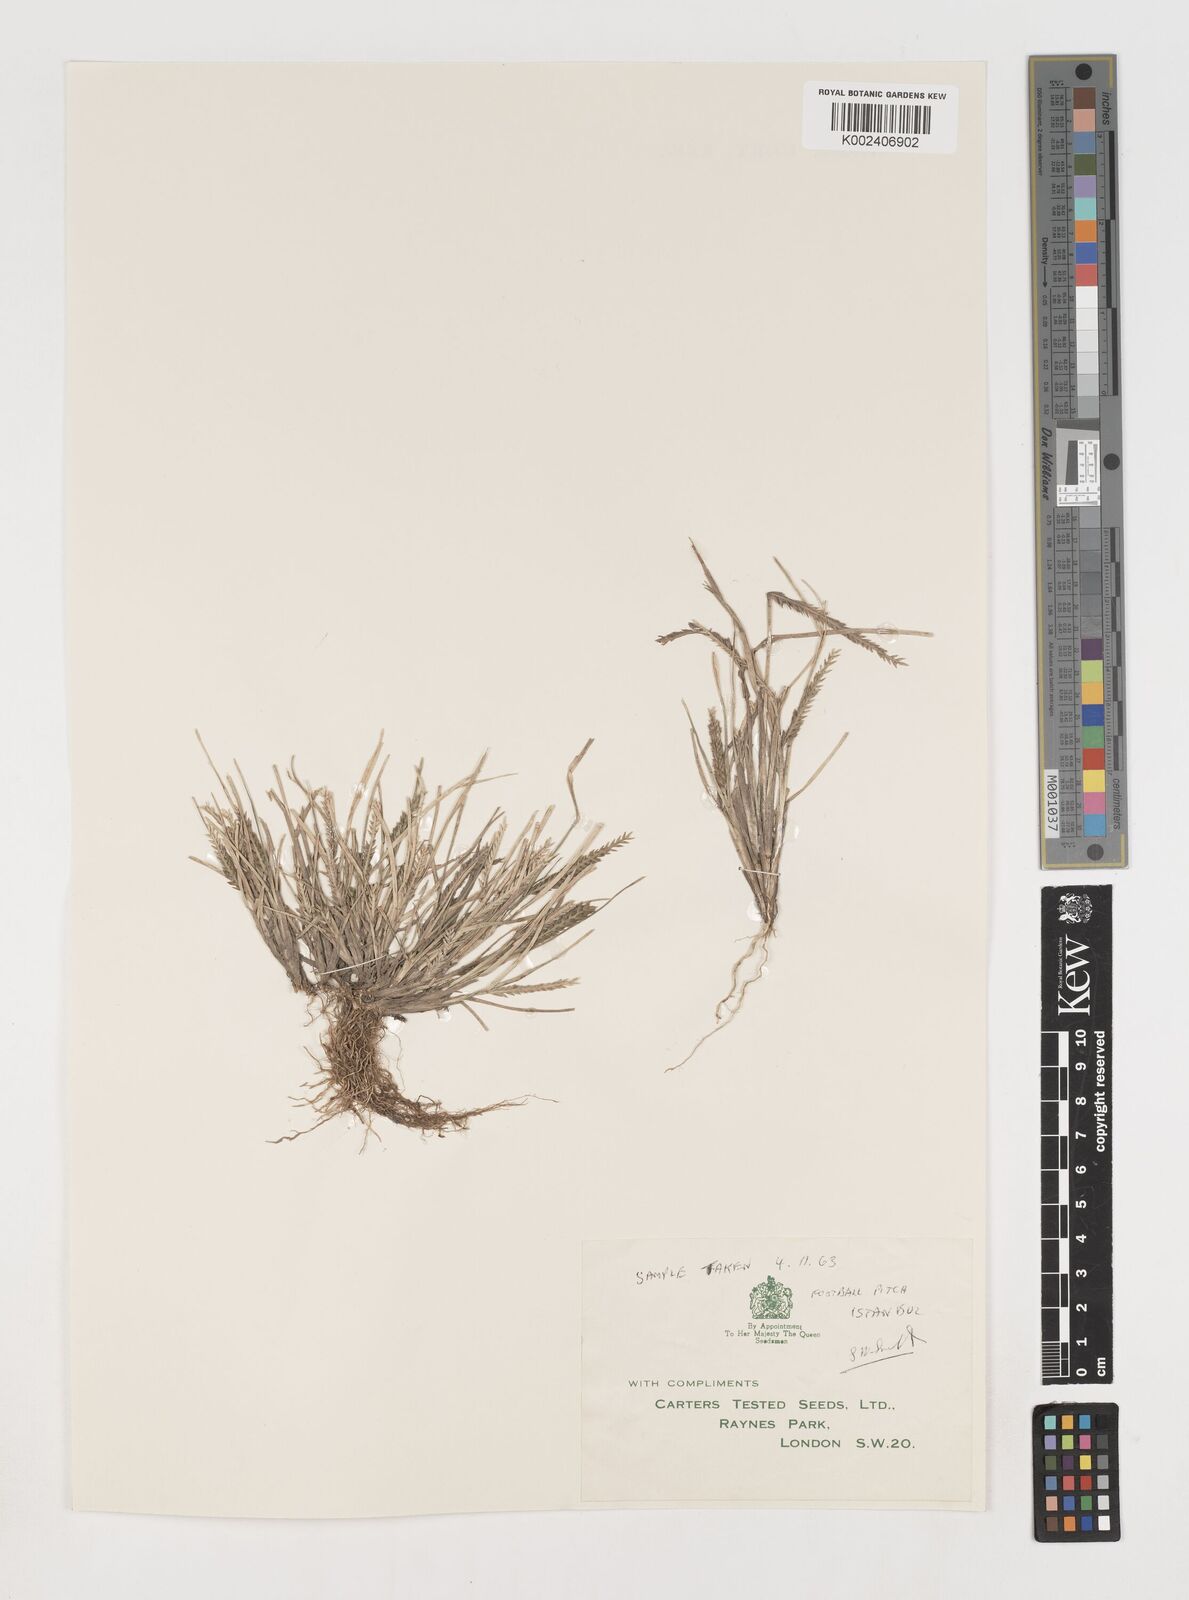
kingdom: Plantae
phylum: Tracheophyta
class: Liliopsida
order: Poales
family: Poaceae
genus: Eleusine
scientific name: Eleusine indica
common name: Yard-grass
